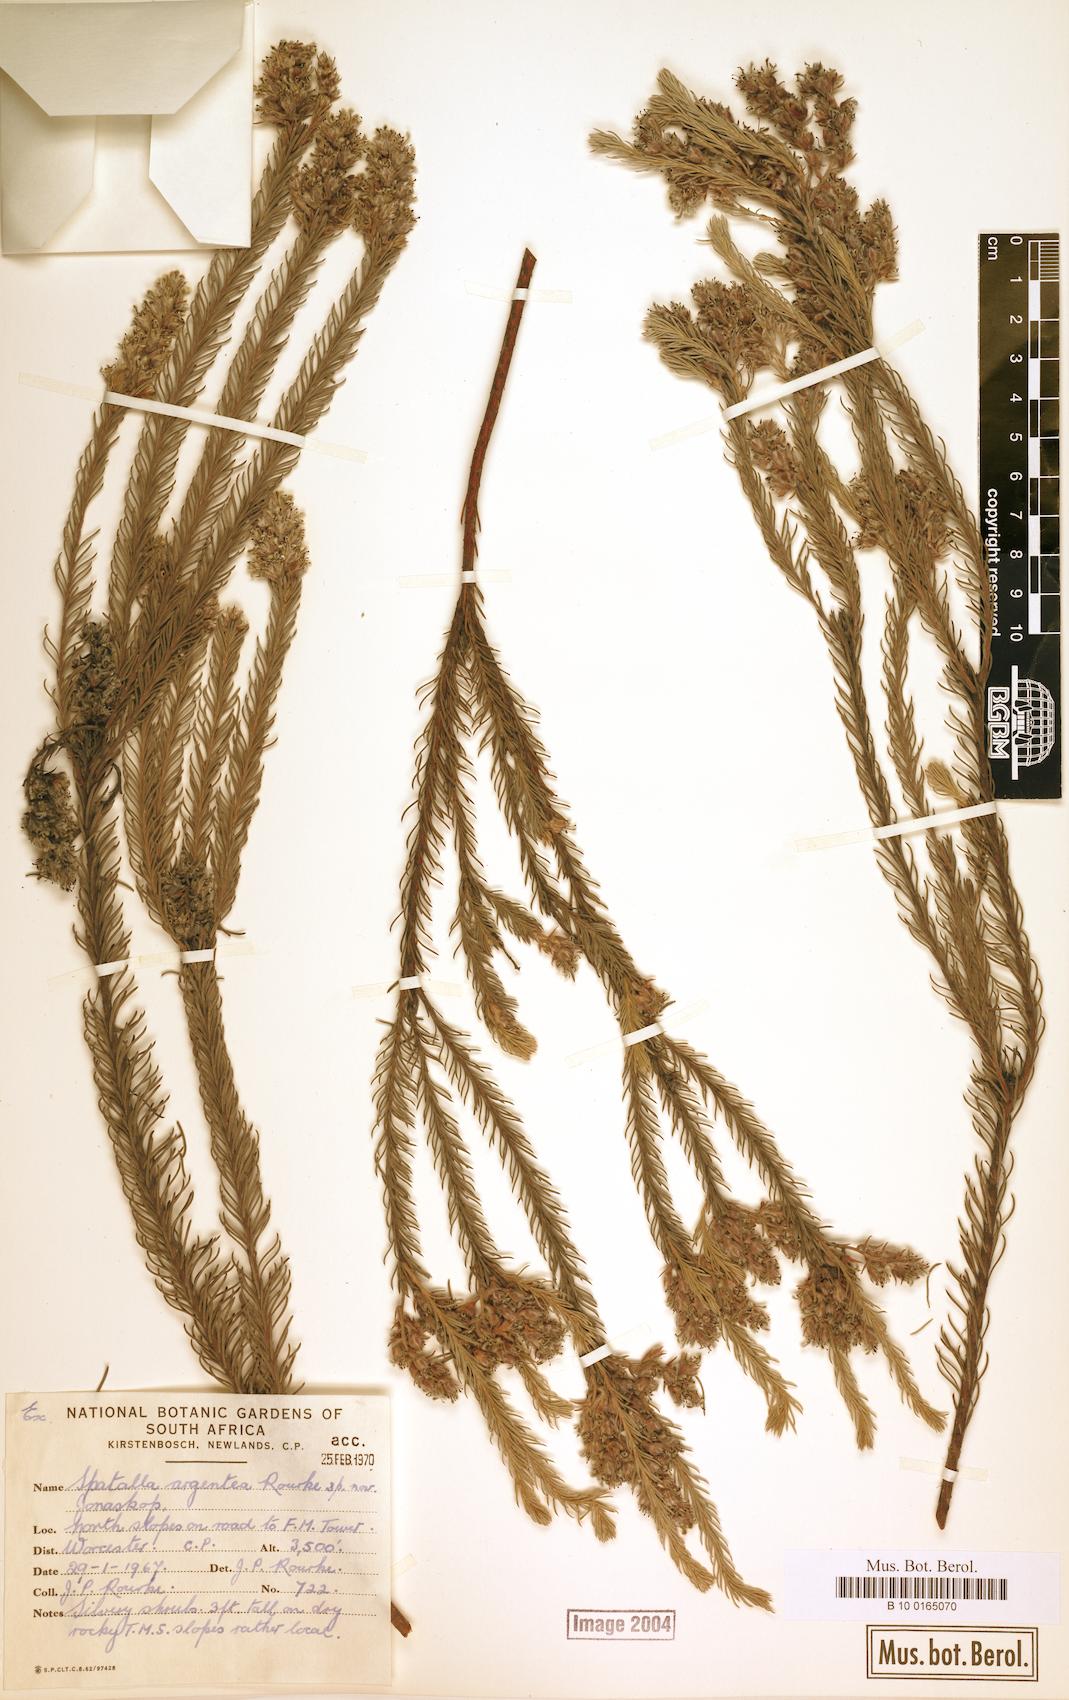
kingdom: Plantae
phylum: Tracheophyta
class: Magnoliopsida
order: Proteales
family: Proteaceae
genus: Spatalla
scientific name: Spatalla argentea
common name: Silver-leaf spoon
